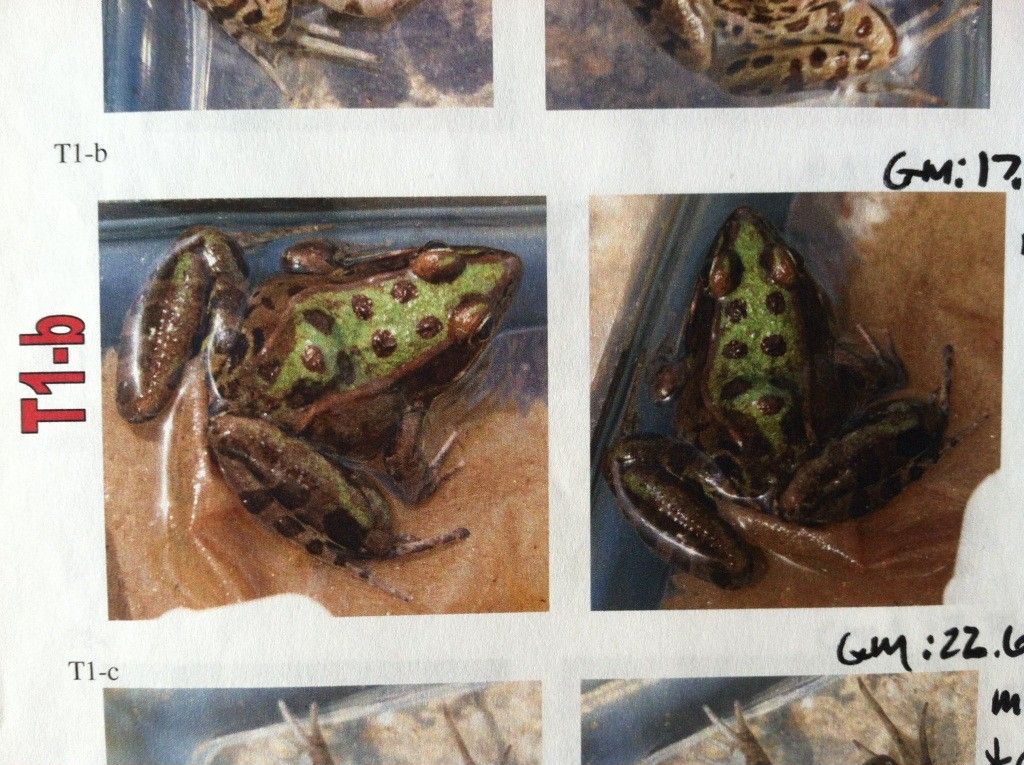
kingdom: Animalia
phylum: Chordata
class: Amphibia
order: Anura
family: Ranidae
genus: Lithobates
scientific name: Lithobates sphenocephalus
